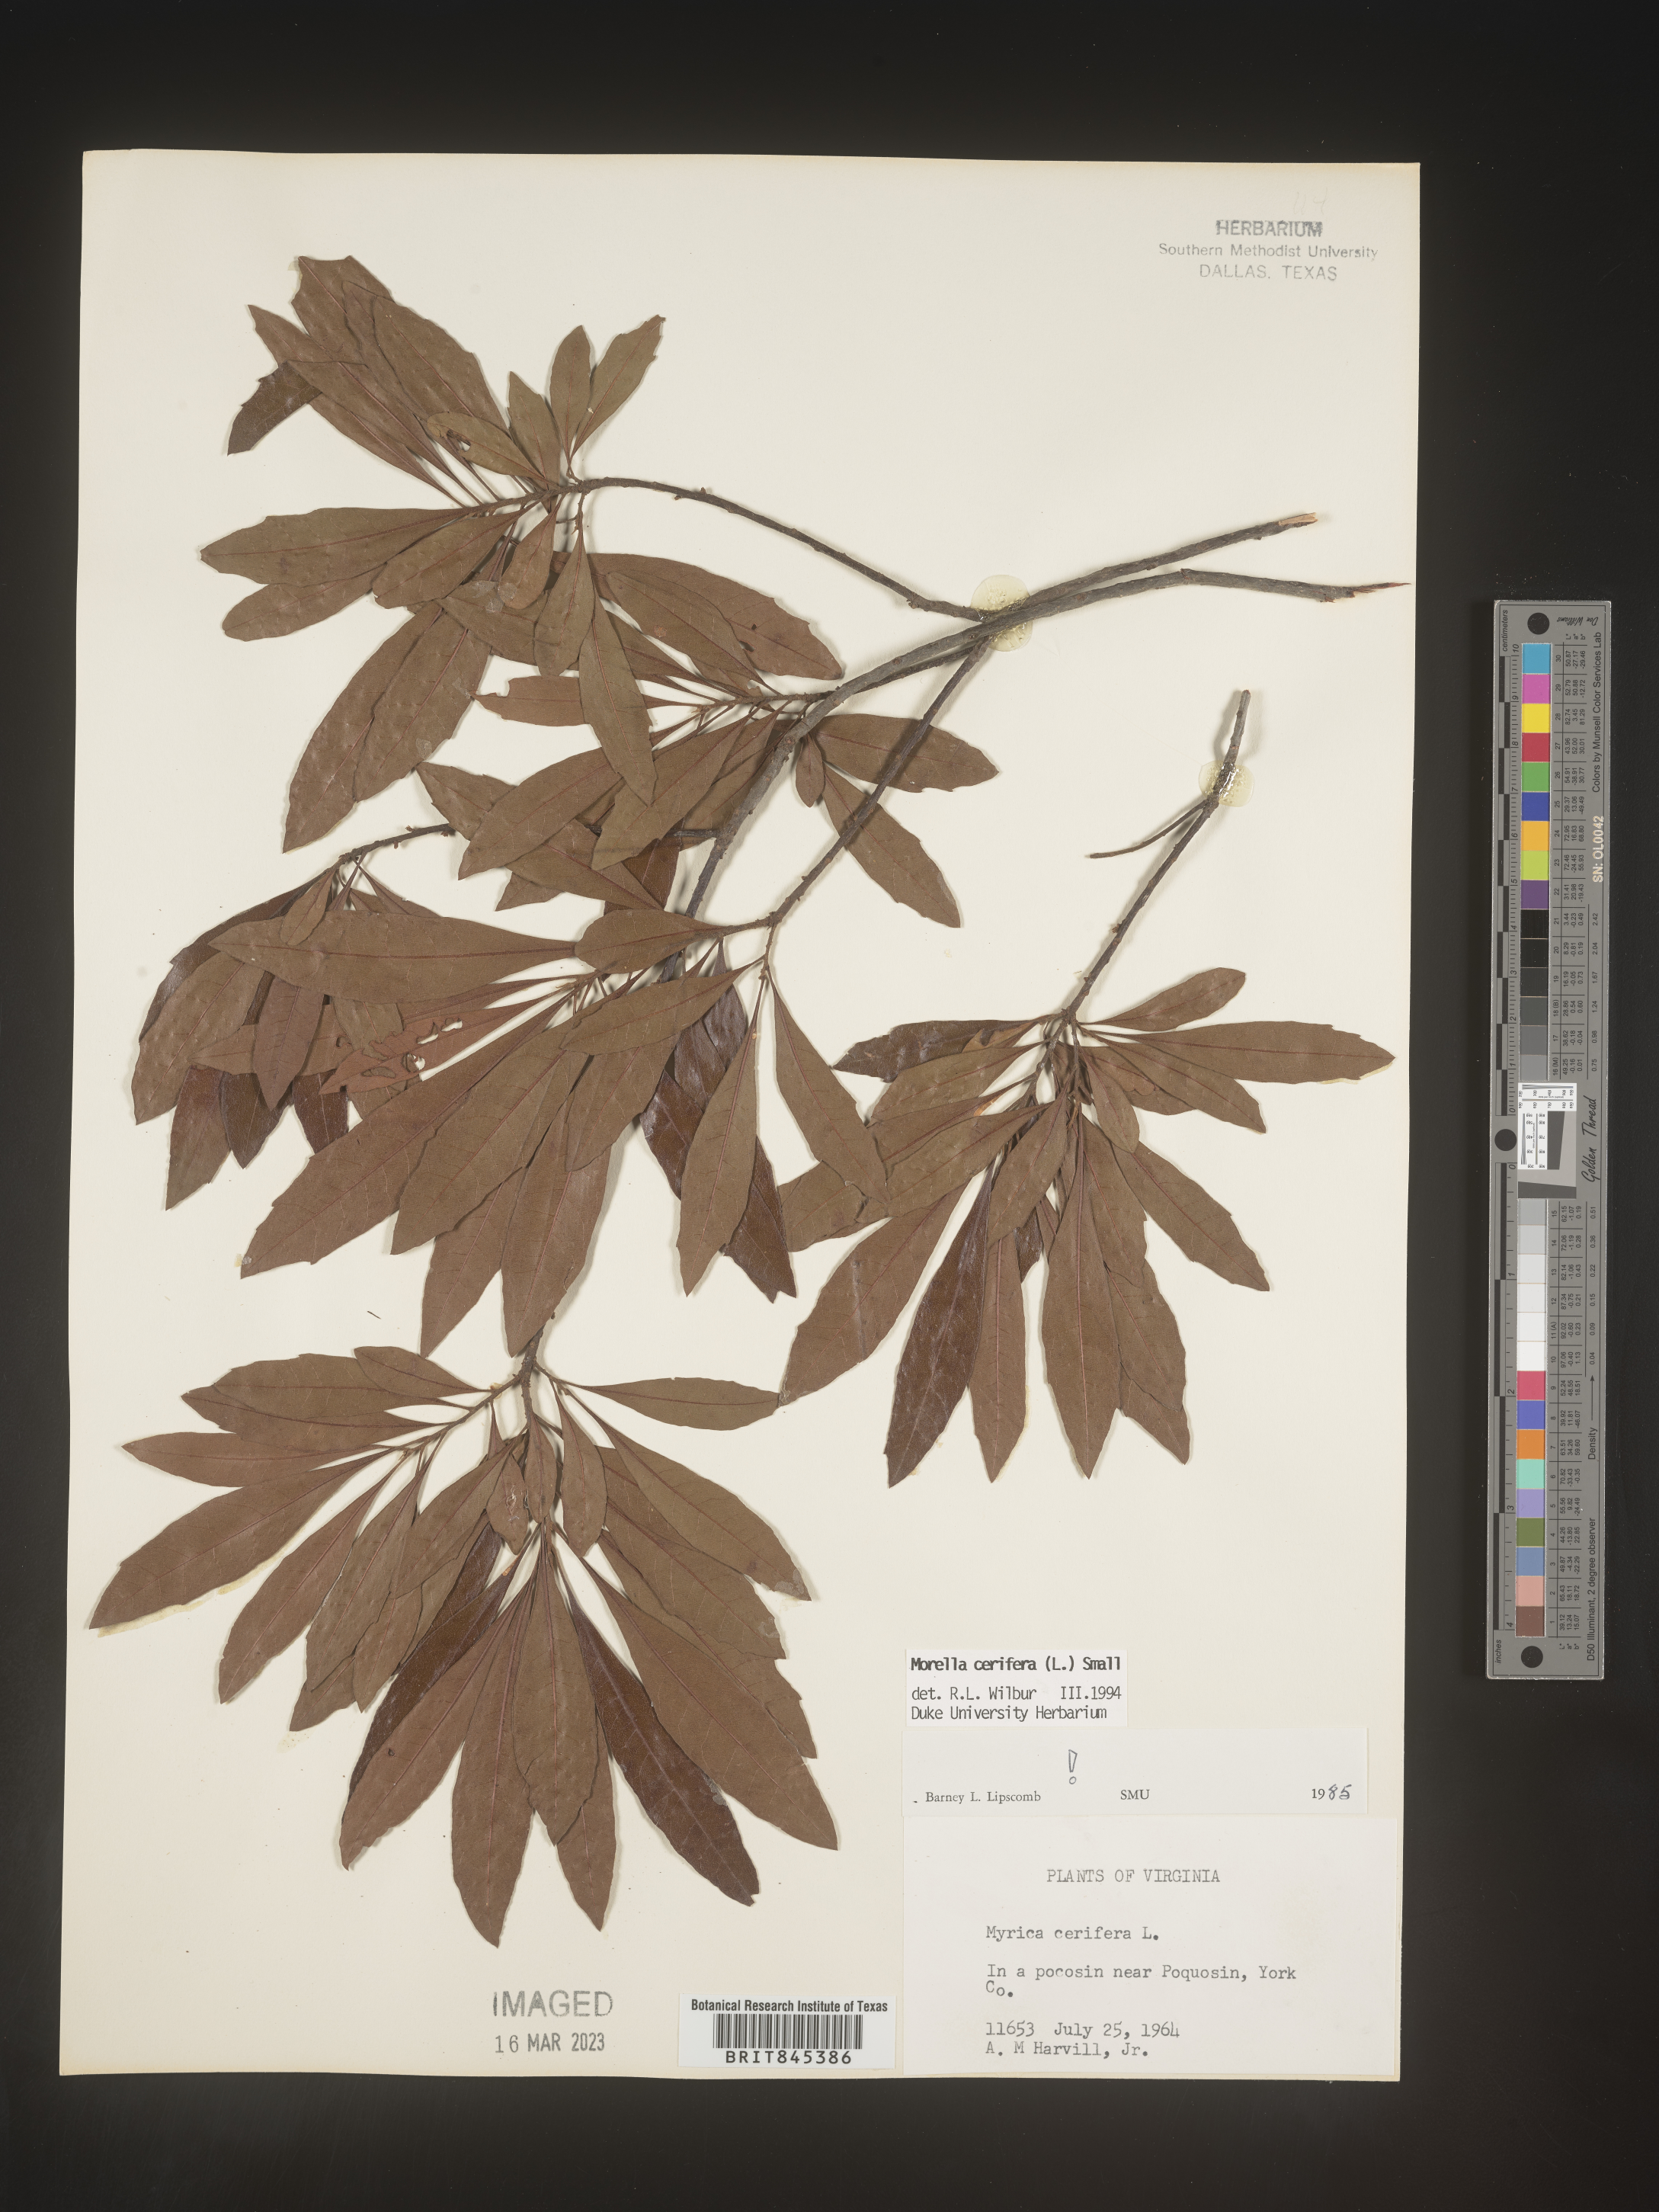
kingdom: Plantae
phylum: Tracheophyta
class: Magnoliopsida
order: Fagales
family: Myricaceae
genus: Morella
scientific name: Morella cerifera
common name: Wax myrtle
